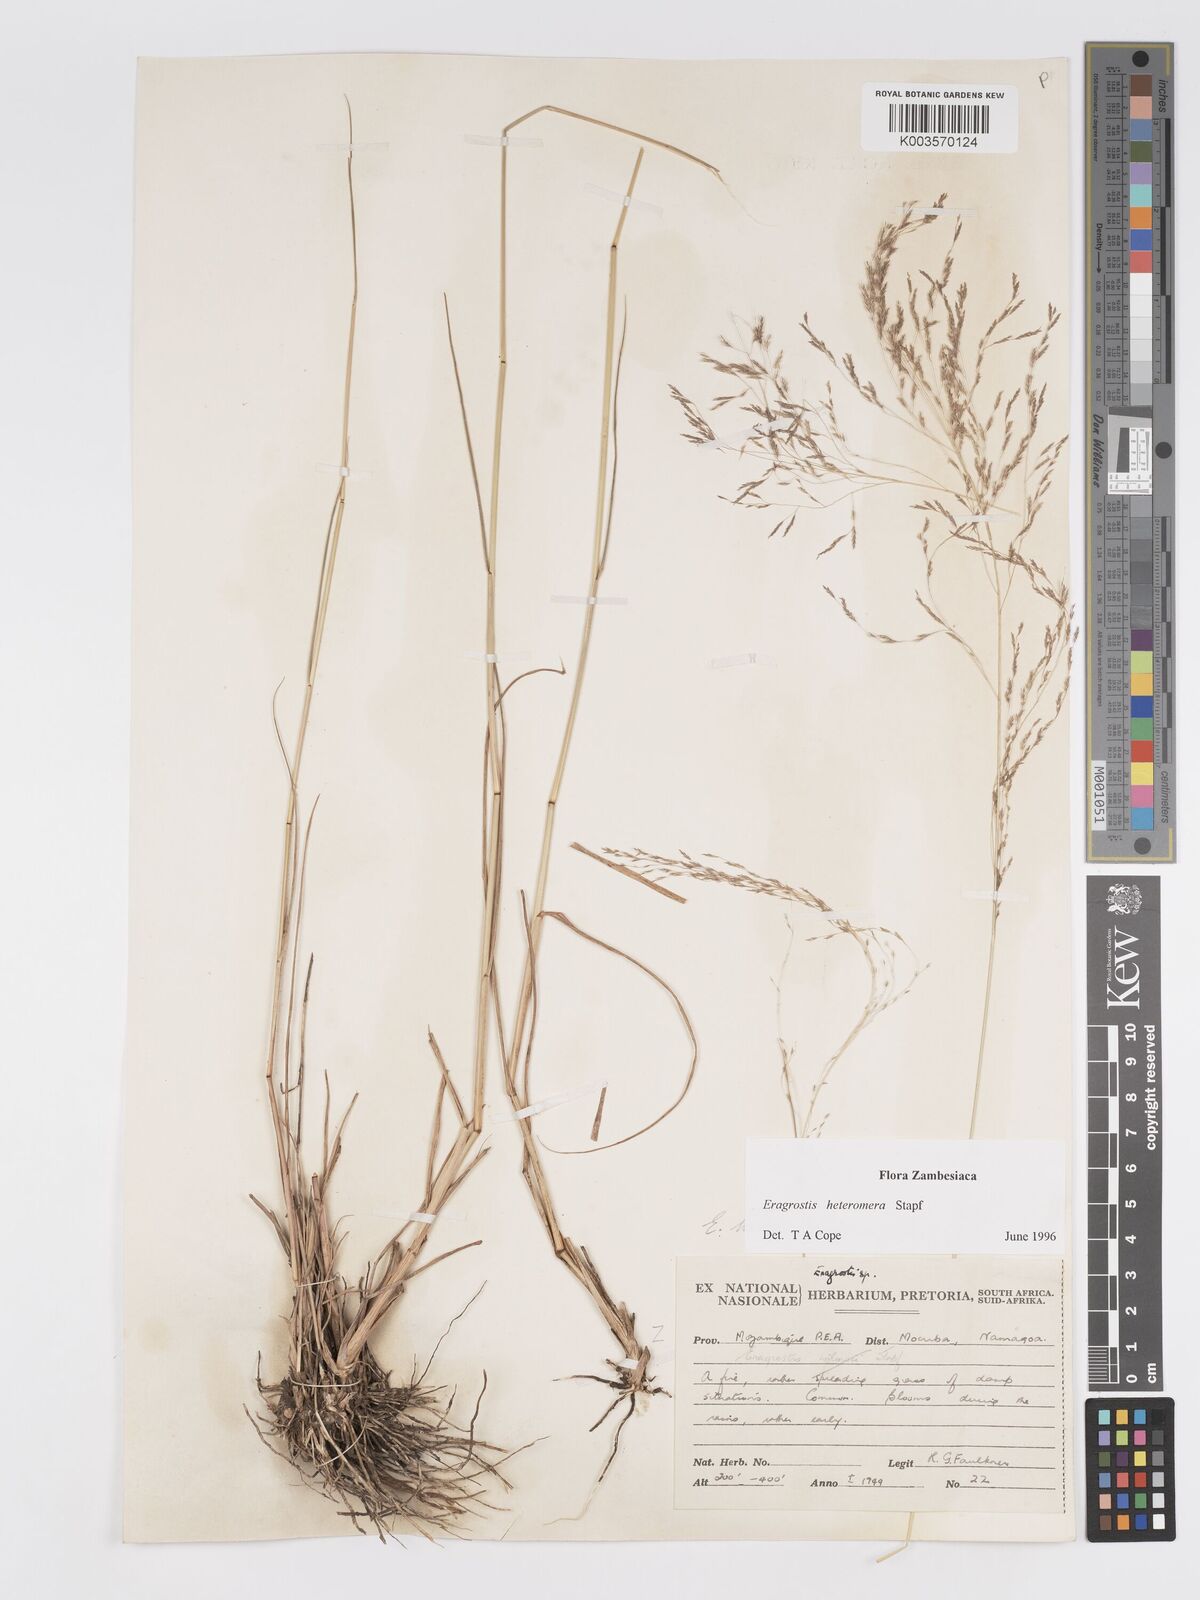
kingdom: Plantae
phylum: Tracheophyta
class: Liliopsida
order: Poales
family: Poaceae
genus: Eragrostis
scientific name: Eragrostis heteromera
